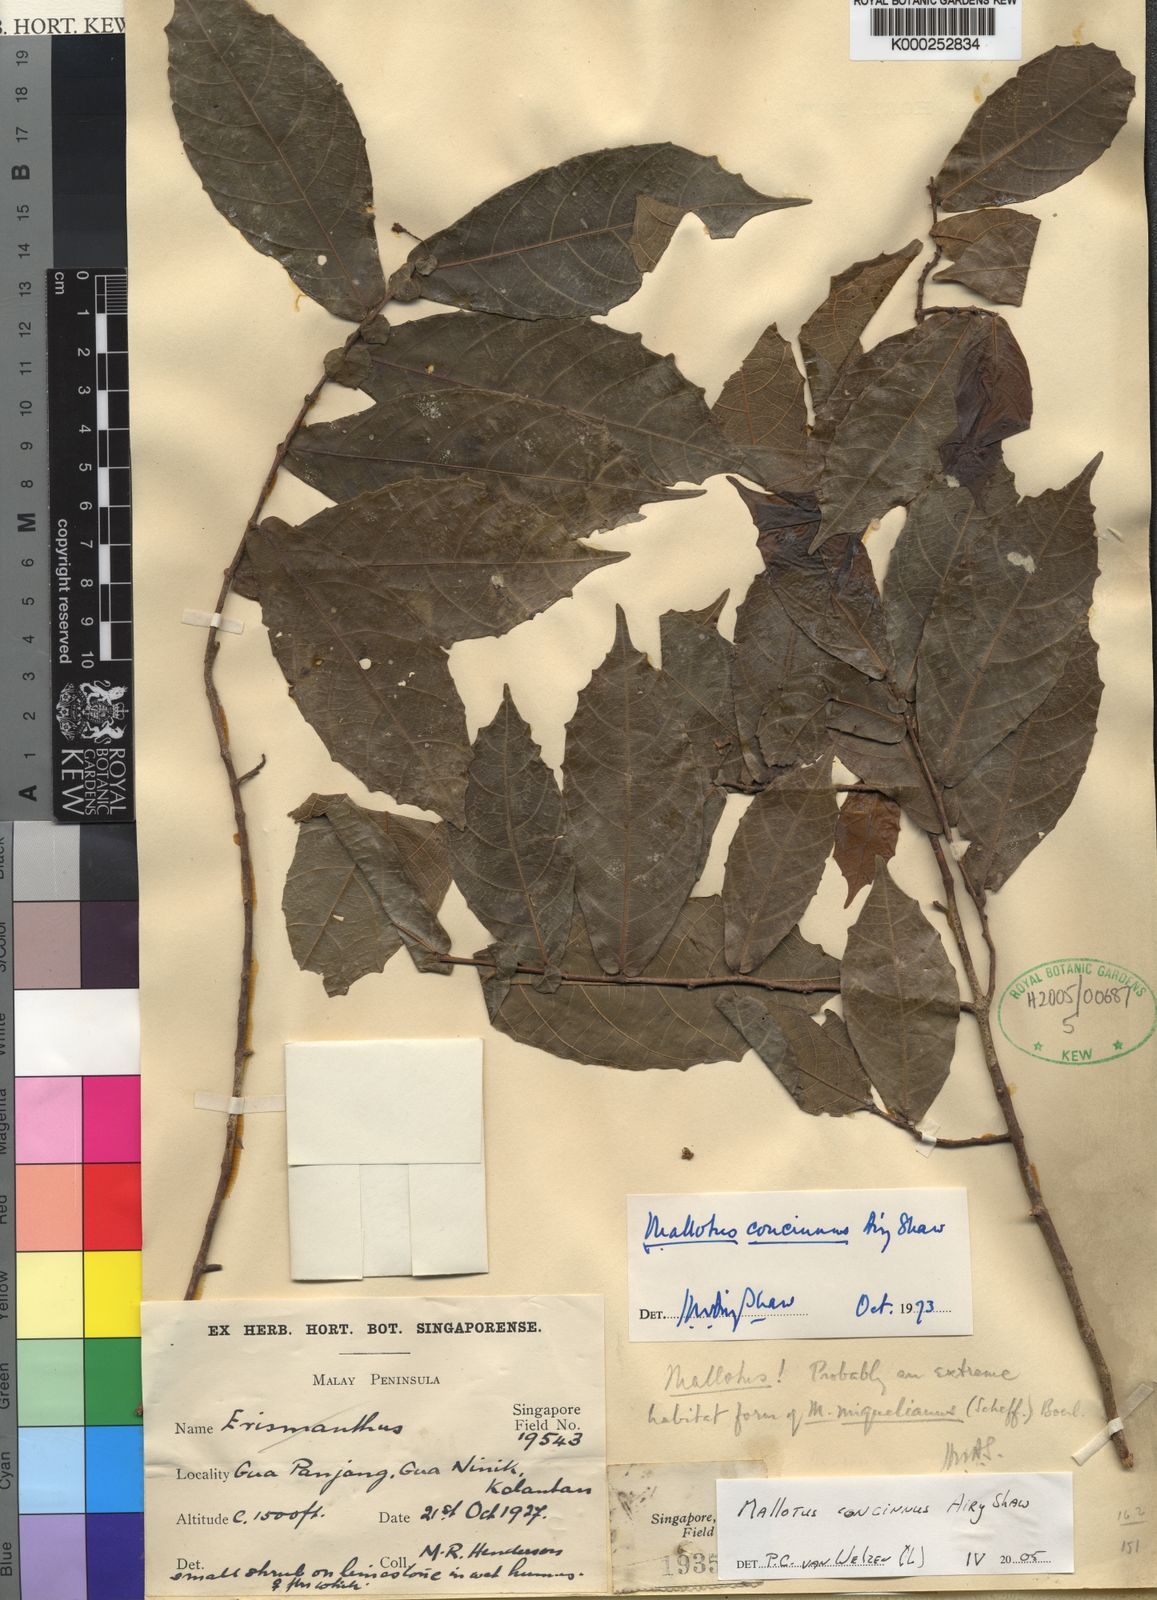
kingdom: Plantae
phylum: Tracheophyta
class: Magnoliopsida
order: Malpighiales
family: Euphorbiaceae
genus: Mallotus
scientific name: Mallotus concinnus
